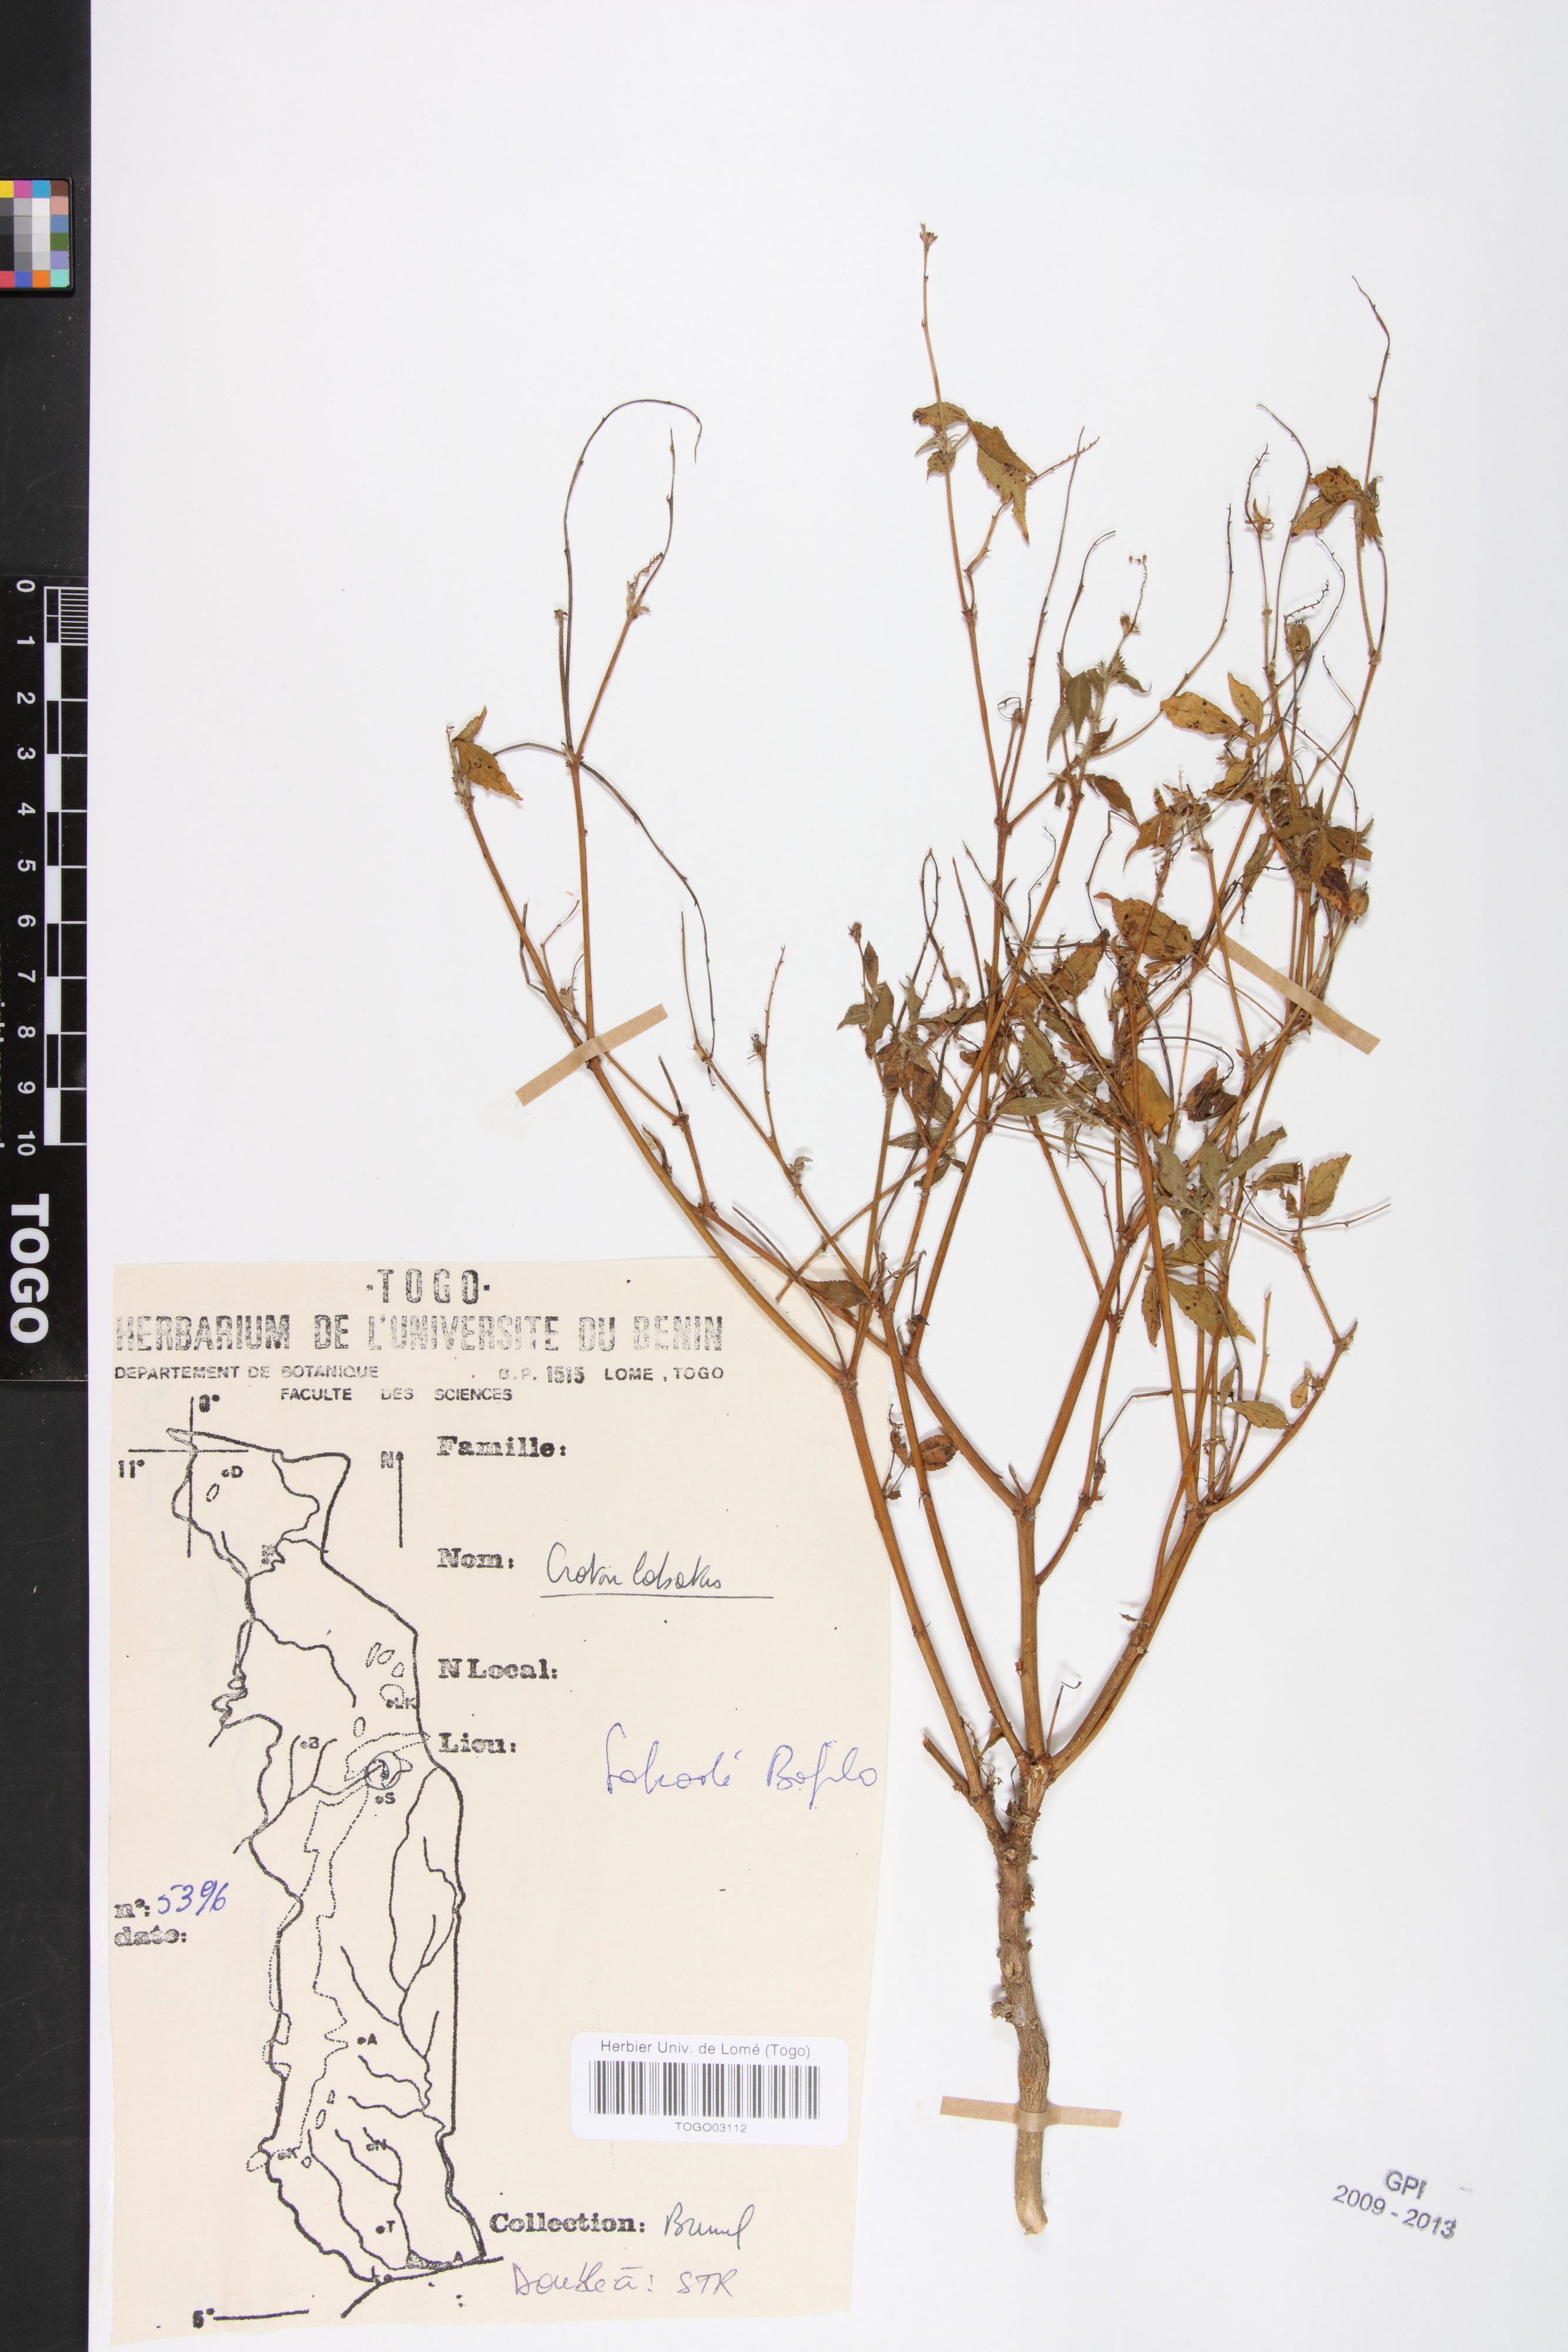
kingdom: Plantae
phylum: Tracheophyta
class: Magnoliopsida
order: Malpighiales
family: Euphorbiaceae
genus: Astraea
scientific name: Astraea lobata
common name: Lobed croton
